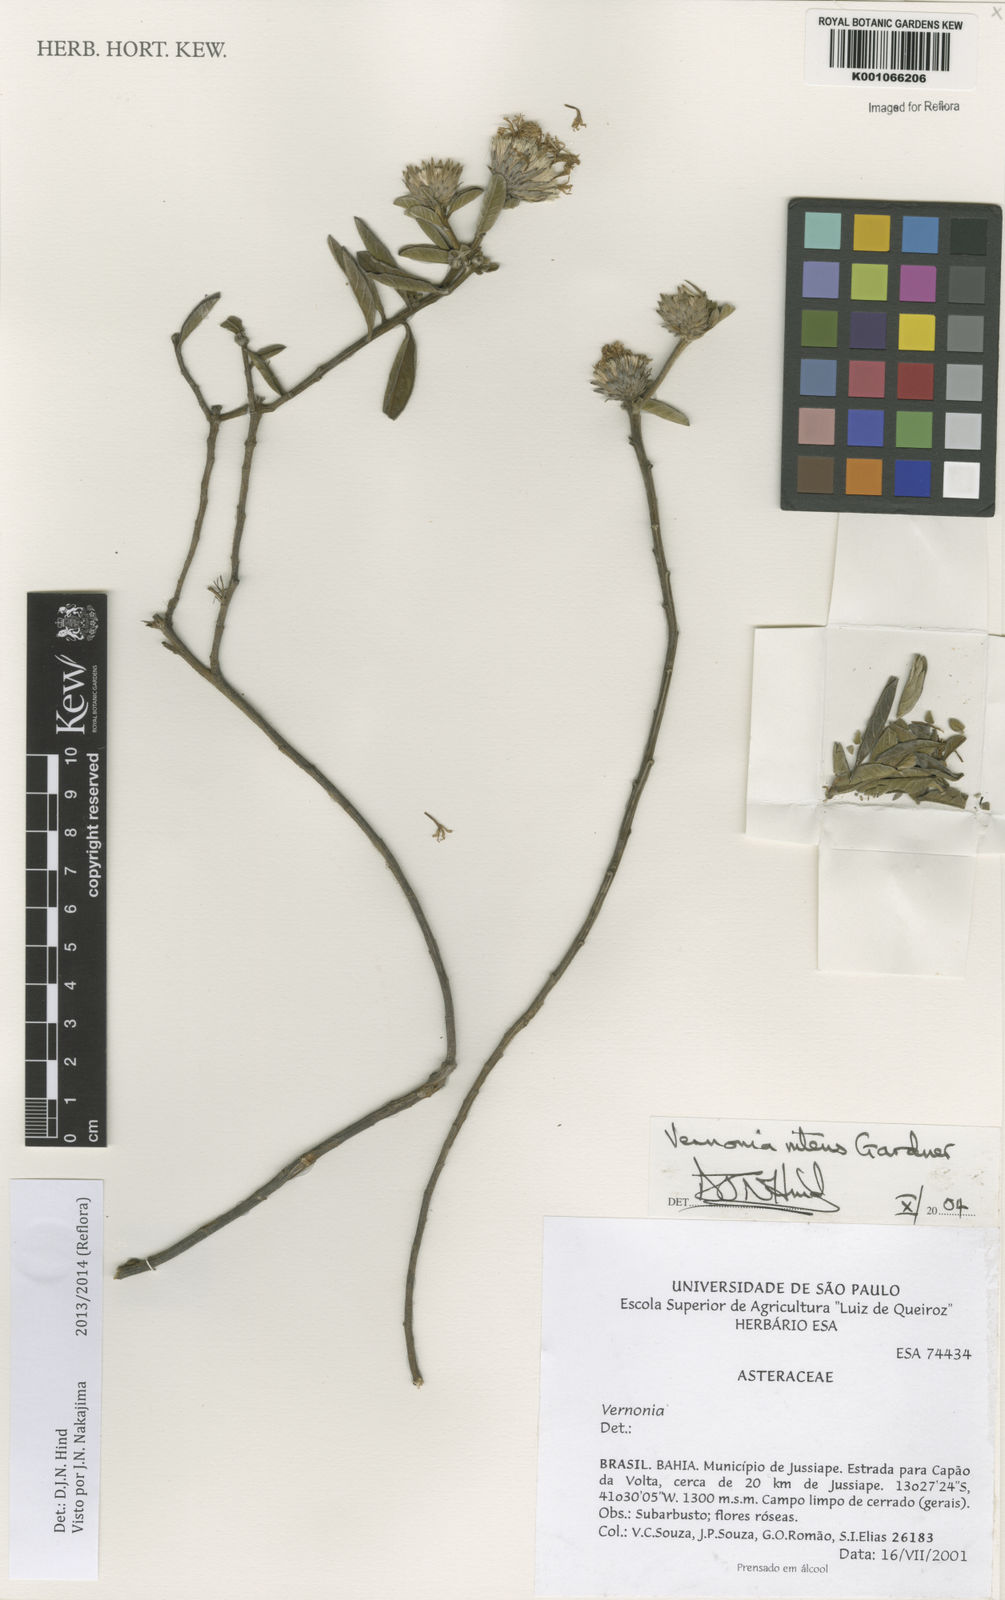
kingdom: Plantae
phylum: Tracheophyta
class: Magnoliopsida
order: Asterales
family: Asteraceae
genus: Lepidaploa
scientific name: Lepidaploa nitens
